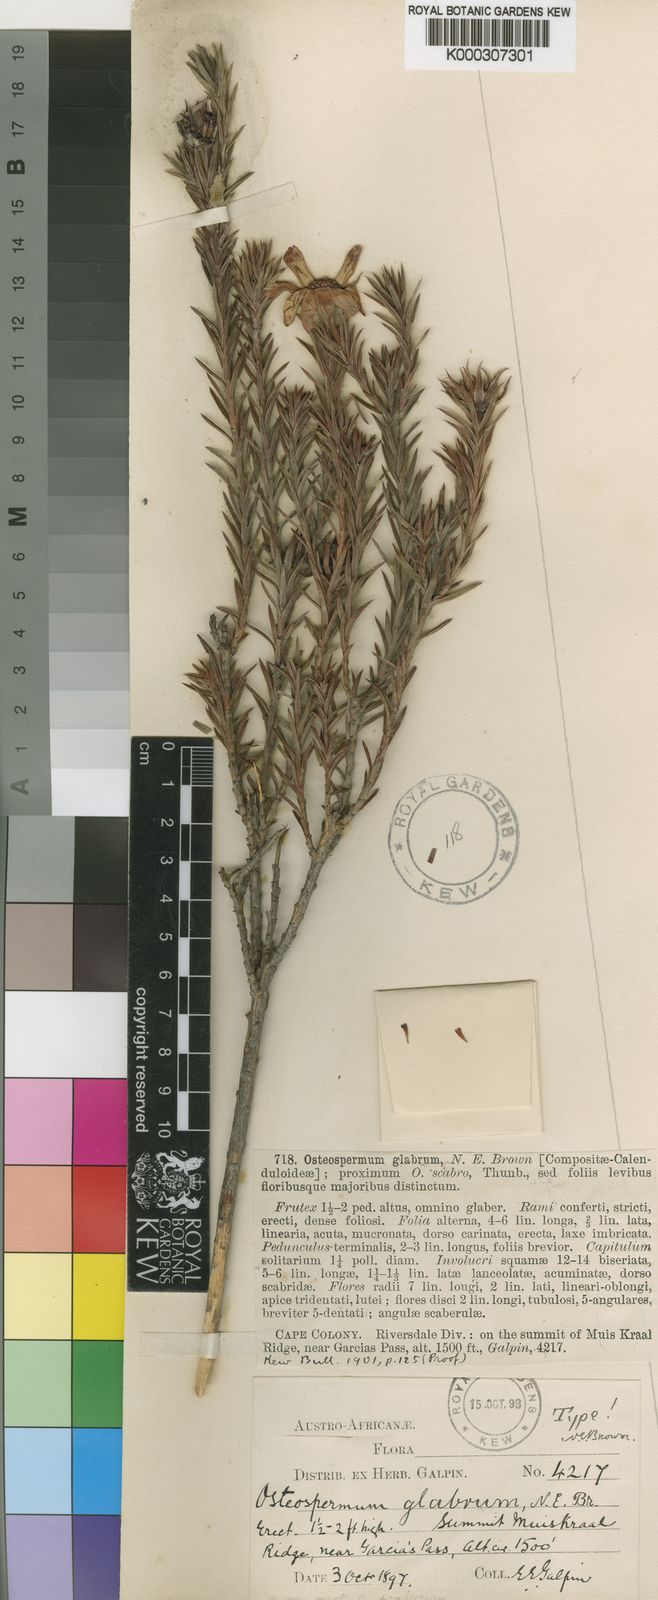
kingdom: Plantae
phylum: Tracheophyta
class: Magnoliopsida
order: Asterales
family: Asteraceae
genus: Gibbaria
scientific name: Gibbaria glabra
